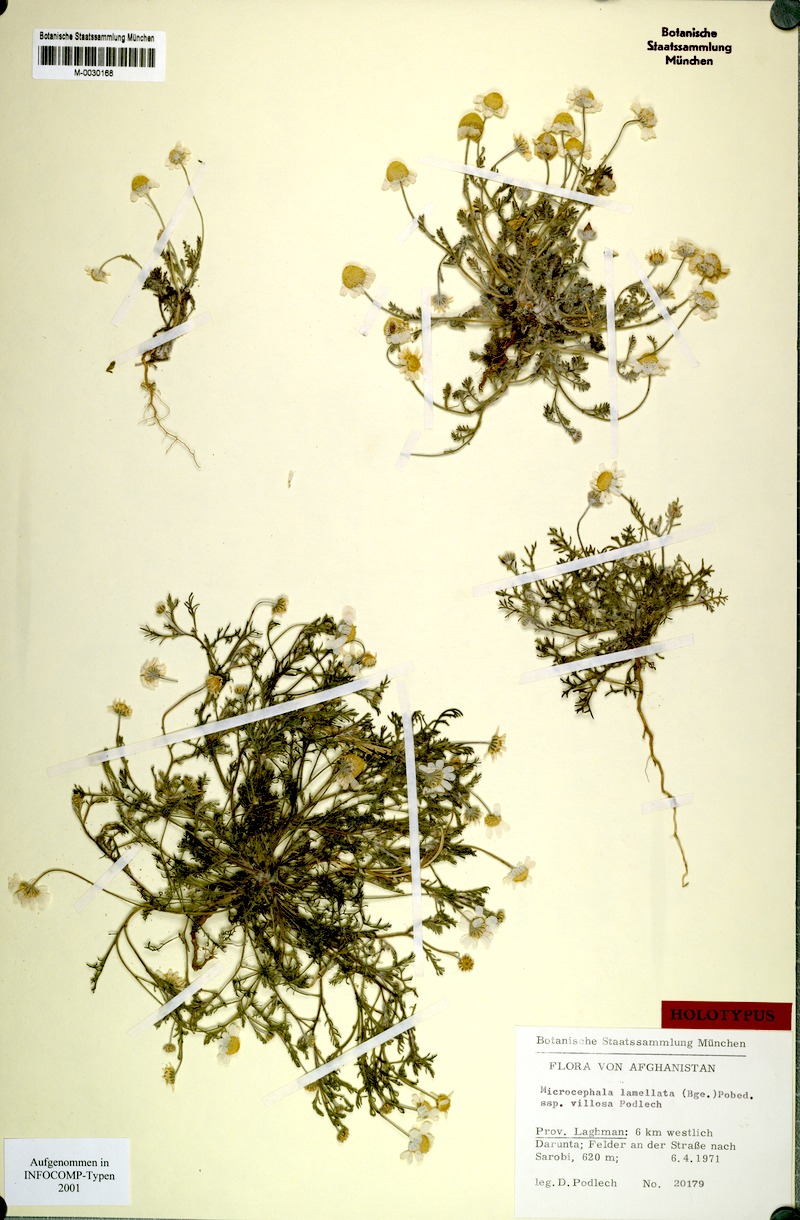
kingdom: Plantae
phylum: Tracheophyta
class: Magnoliopsida
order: Asterales
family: Asteraceae
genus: Microcephala
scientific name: Microcephala lamellata
